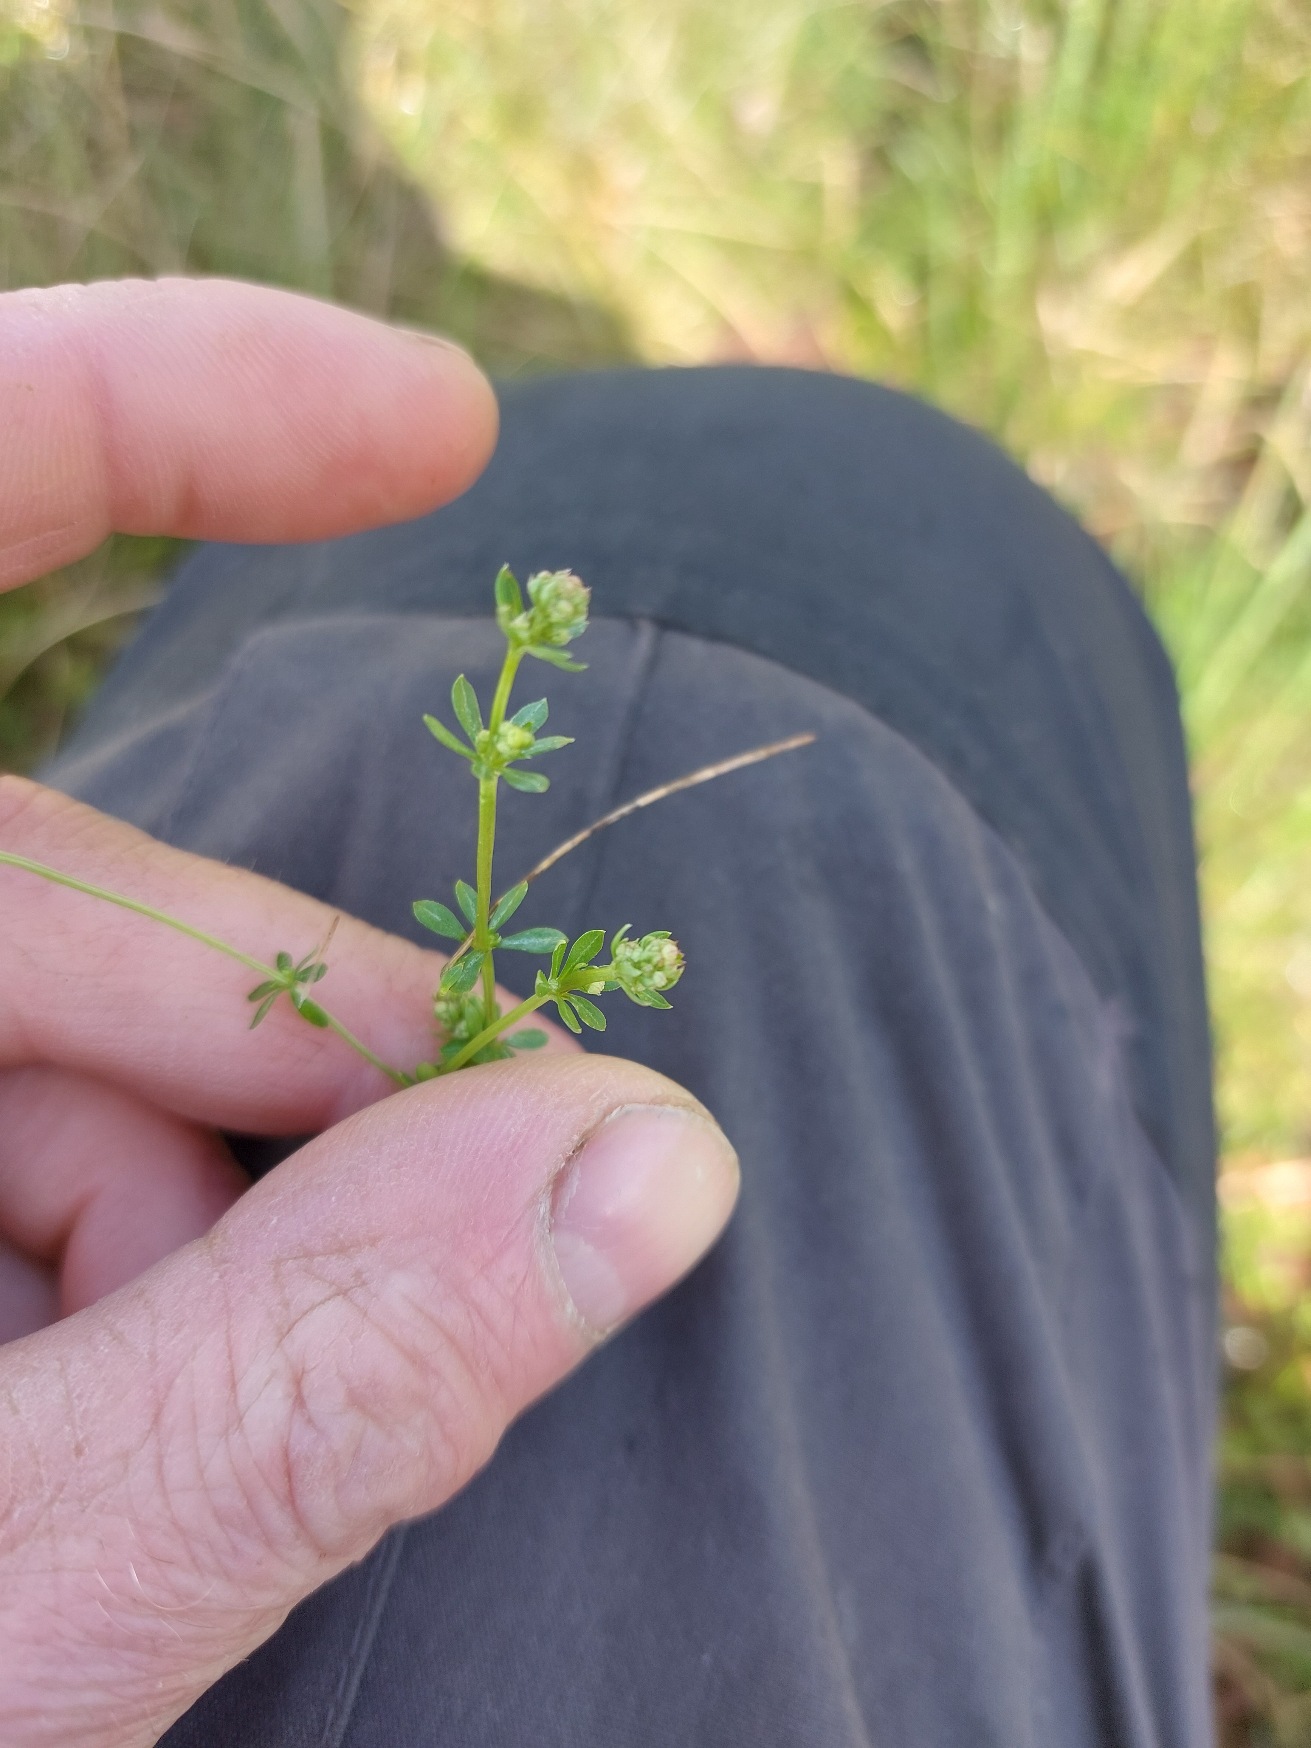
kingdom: Plantae
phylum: Tracheophyta
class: Magnoliopsida
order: Gentianales
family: Rubiaceae
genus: Galium
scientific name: Galium saxatile
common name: Lyng-snerre
